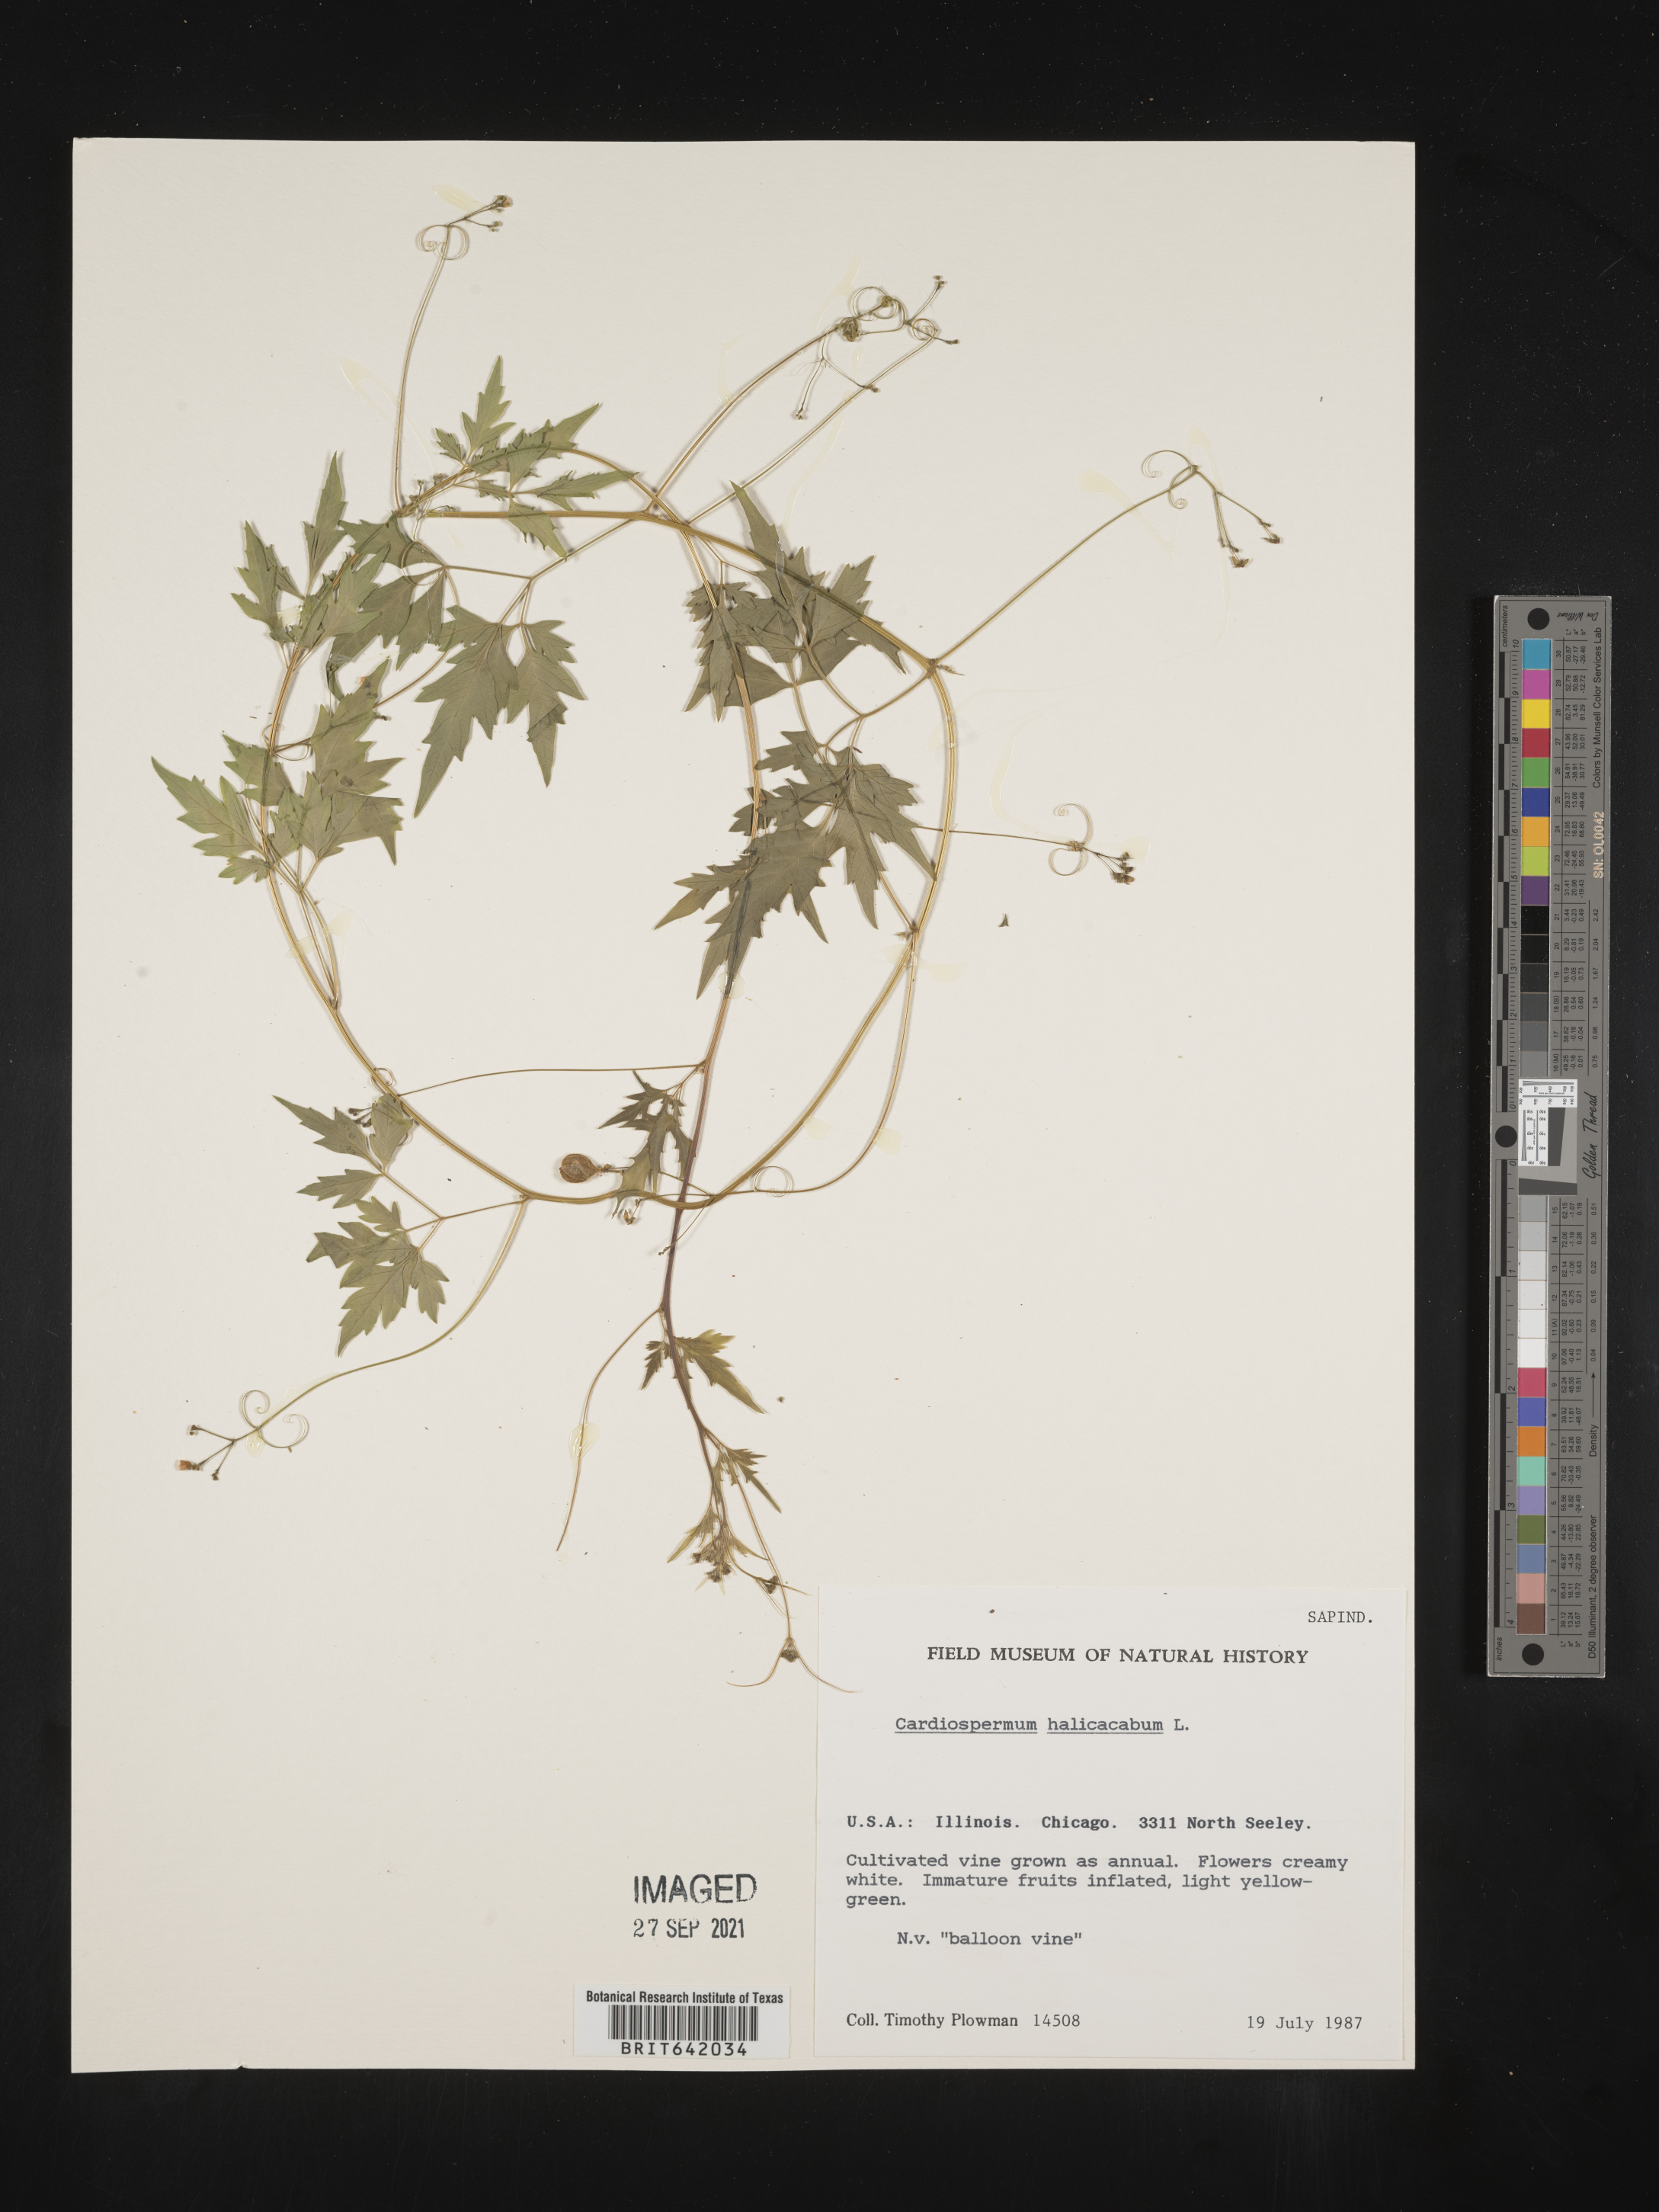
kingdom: Plantae
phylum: Tracheophyta
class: Magnoliopsida
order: Sapindales
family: Sapindaceae
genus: Cardiospermum
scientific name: Cardiospermum
